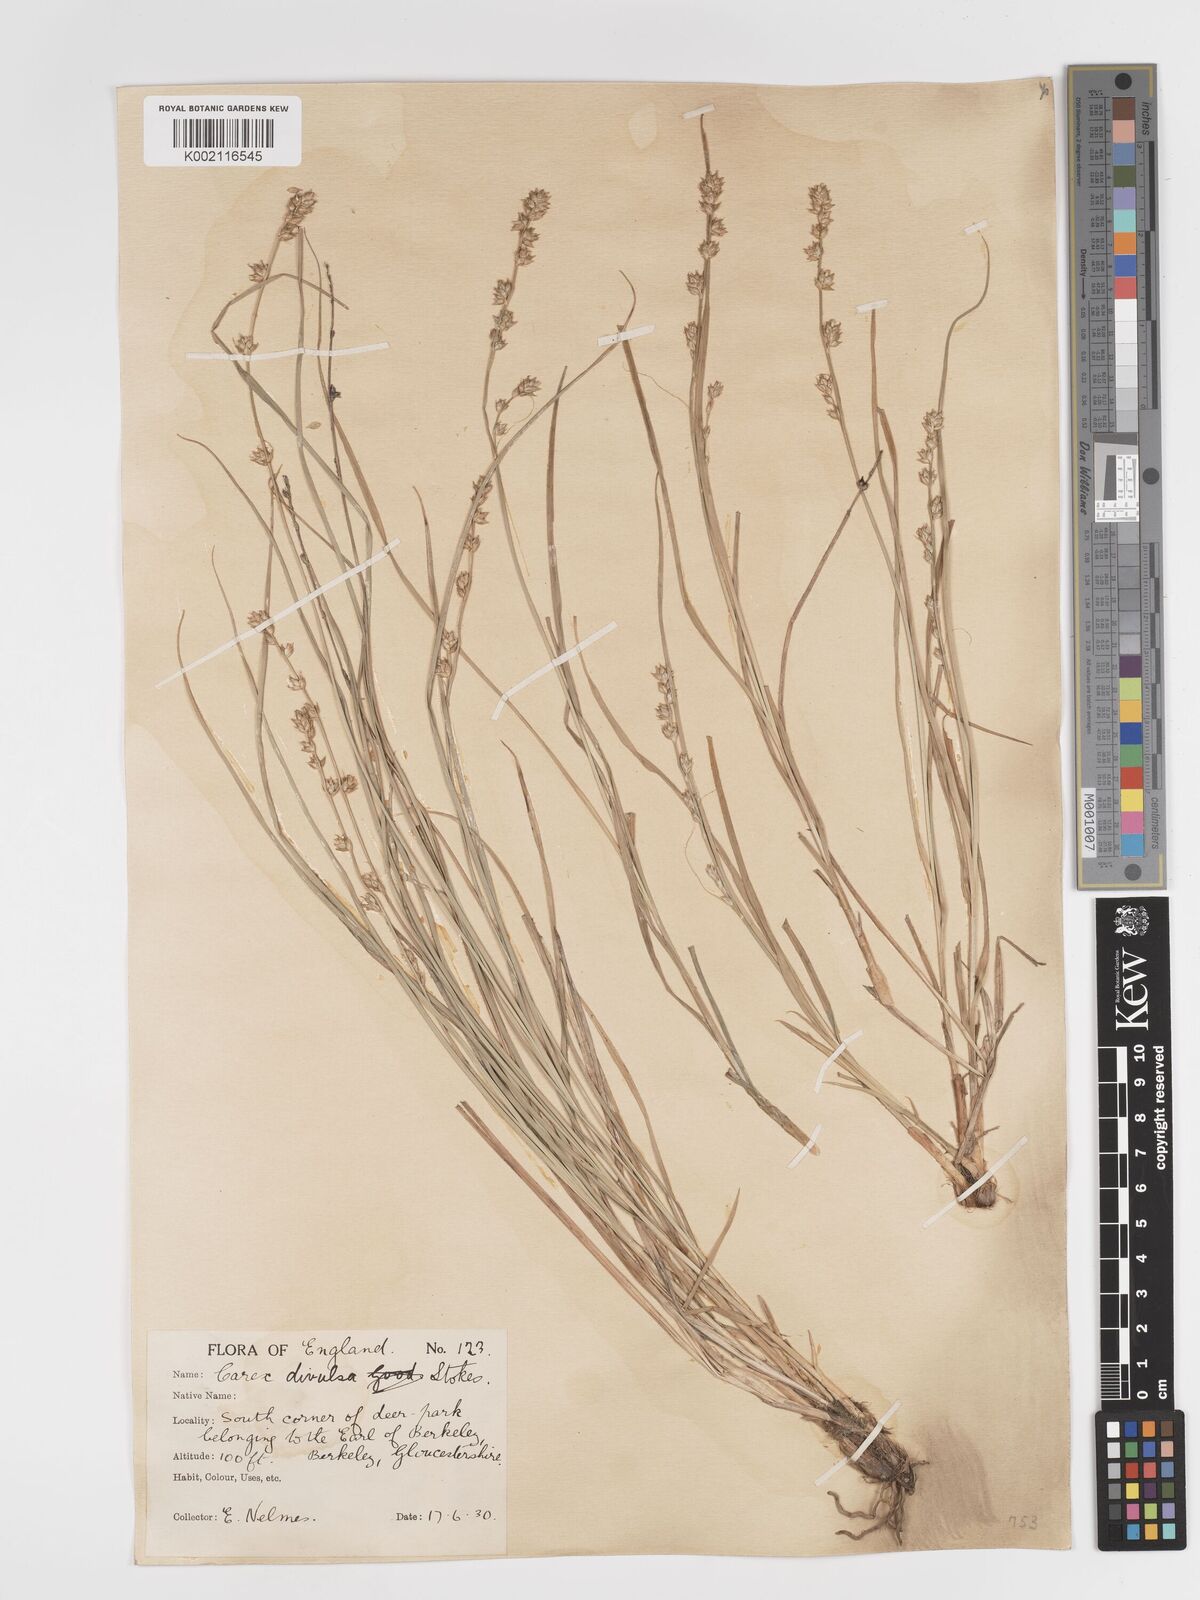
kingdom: Plantae
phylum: Tracheophyta
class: Liliopsida
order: Poales
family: Cyperaceae
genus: Carex
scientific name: Carex divulsa
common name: Grassland sedge
